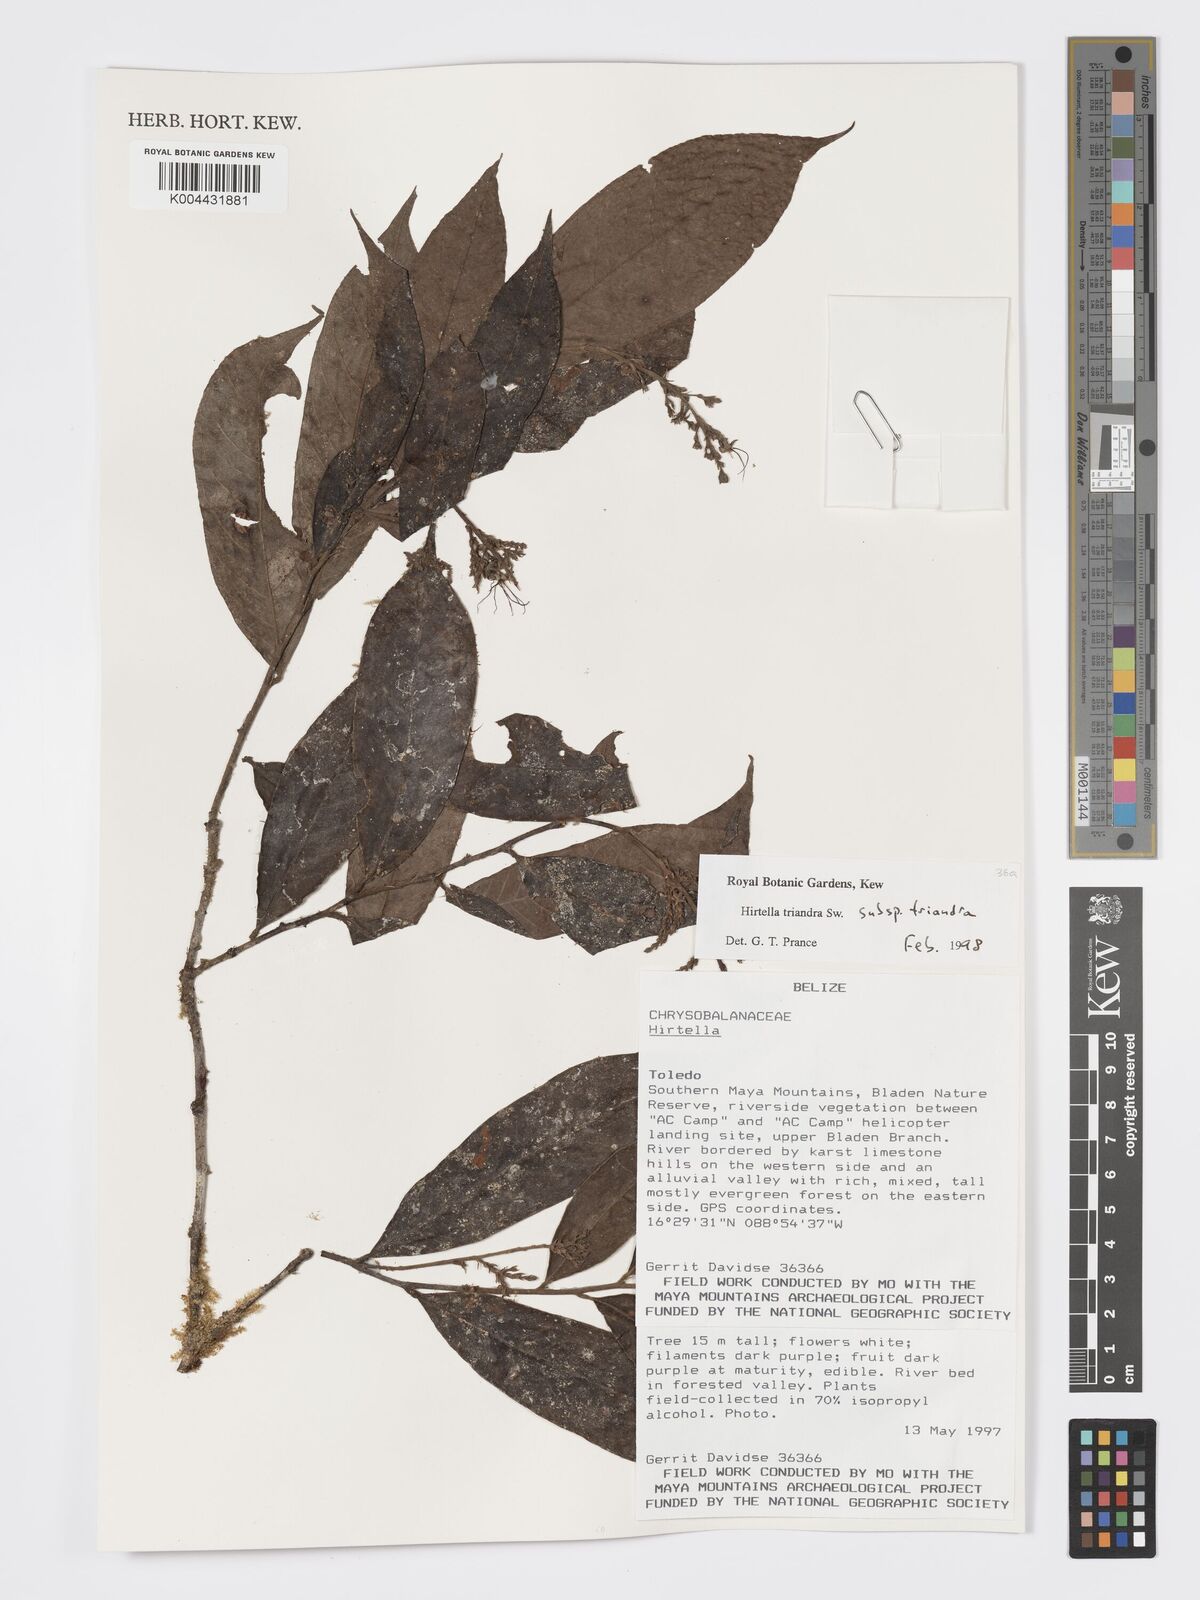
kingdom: Plantae
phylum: Tracheophyta
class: Magnoliopsida
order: Malpighiales
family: Chrysobalanaceae
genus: Hirtella
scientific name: Hirtella triandra
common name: Hairy plum
